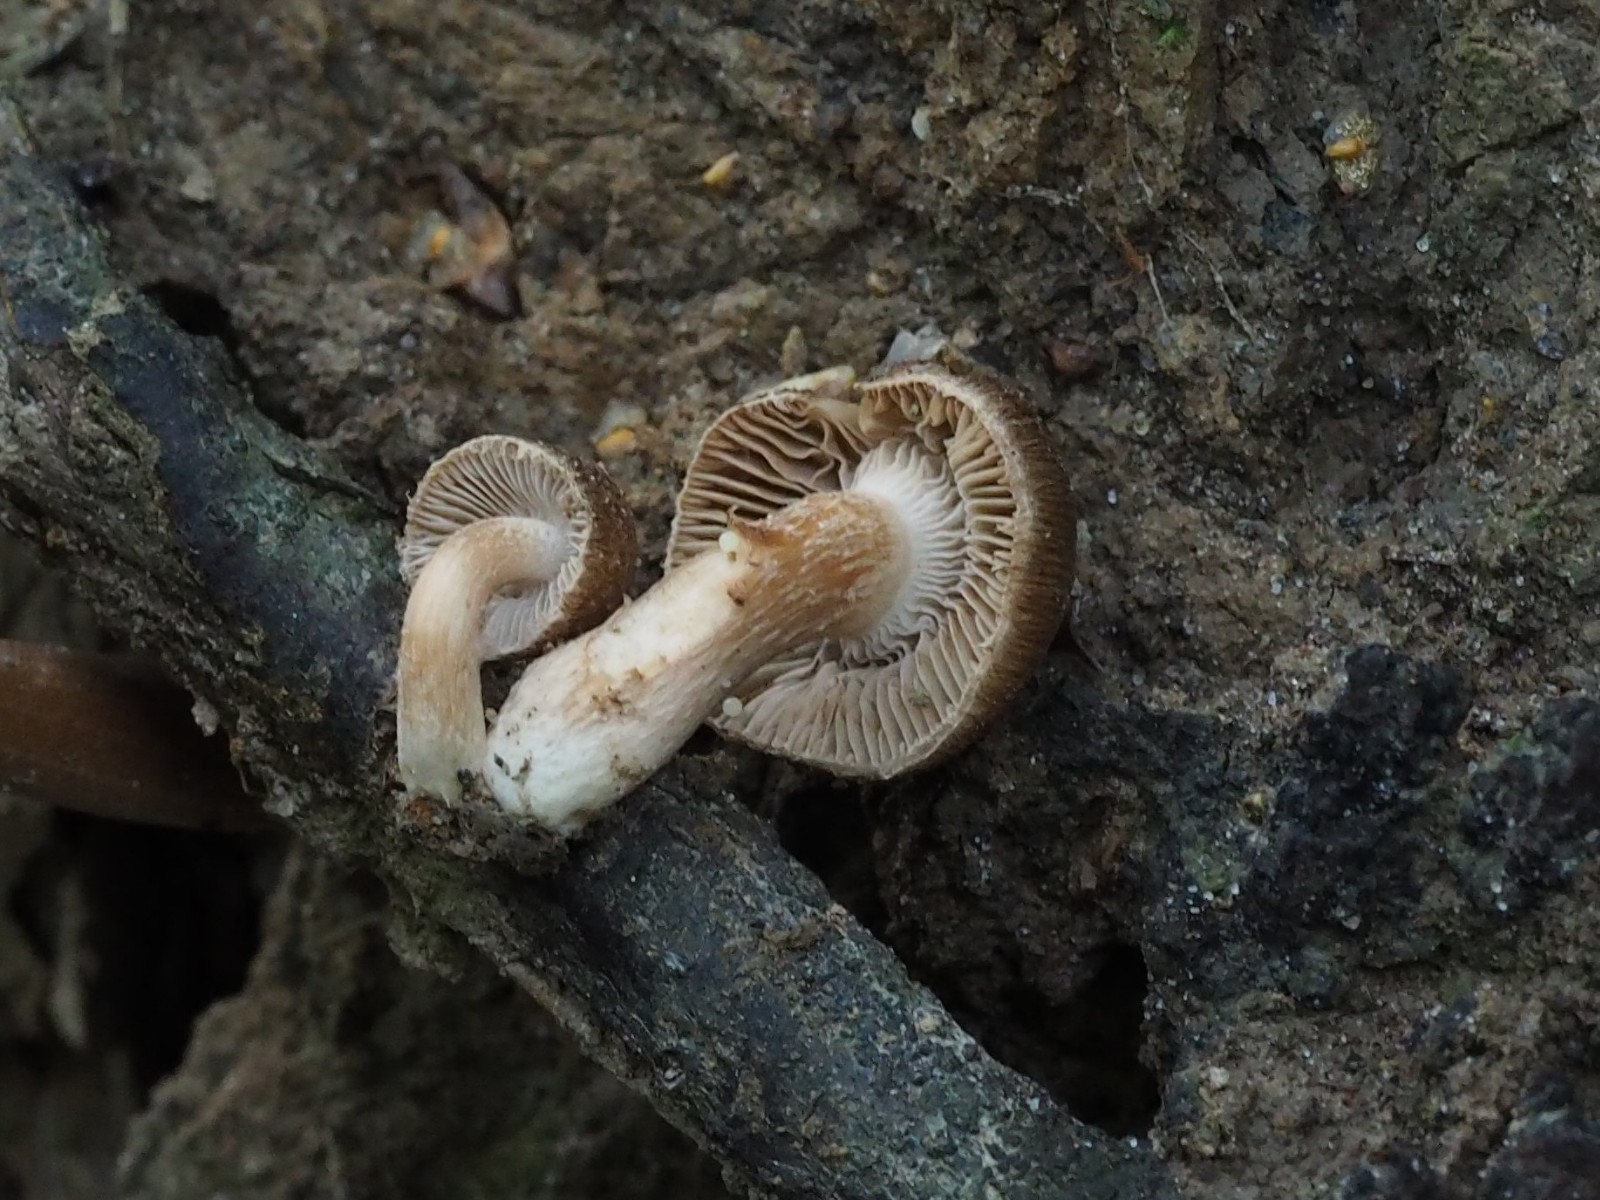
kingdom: Fungi
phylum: Basidiomycota
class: Agaricomycetes
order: Agaricales
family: Inocybaceae
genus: Inocybe
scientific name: Inocybe
